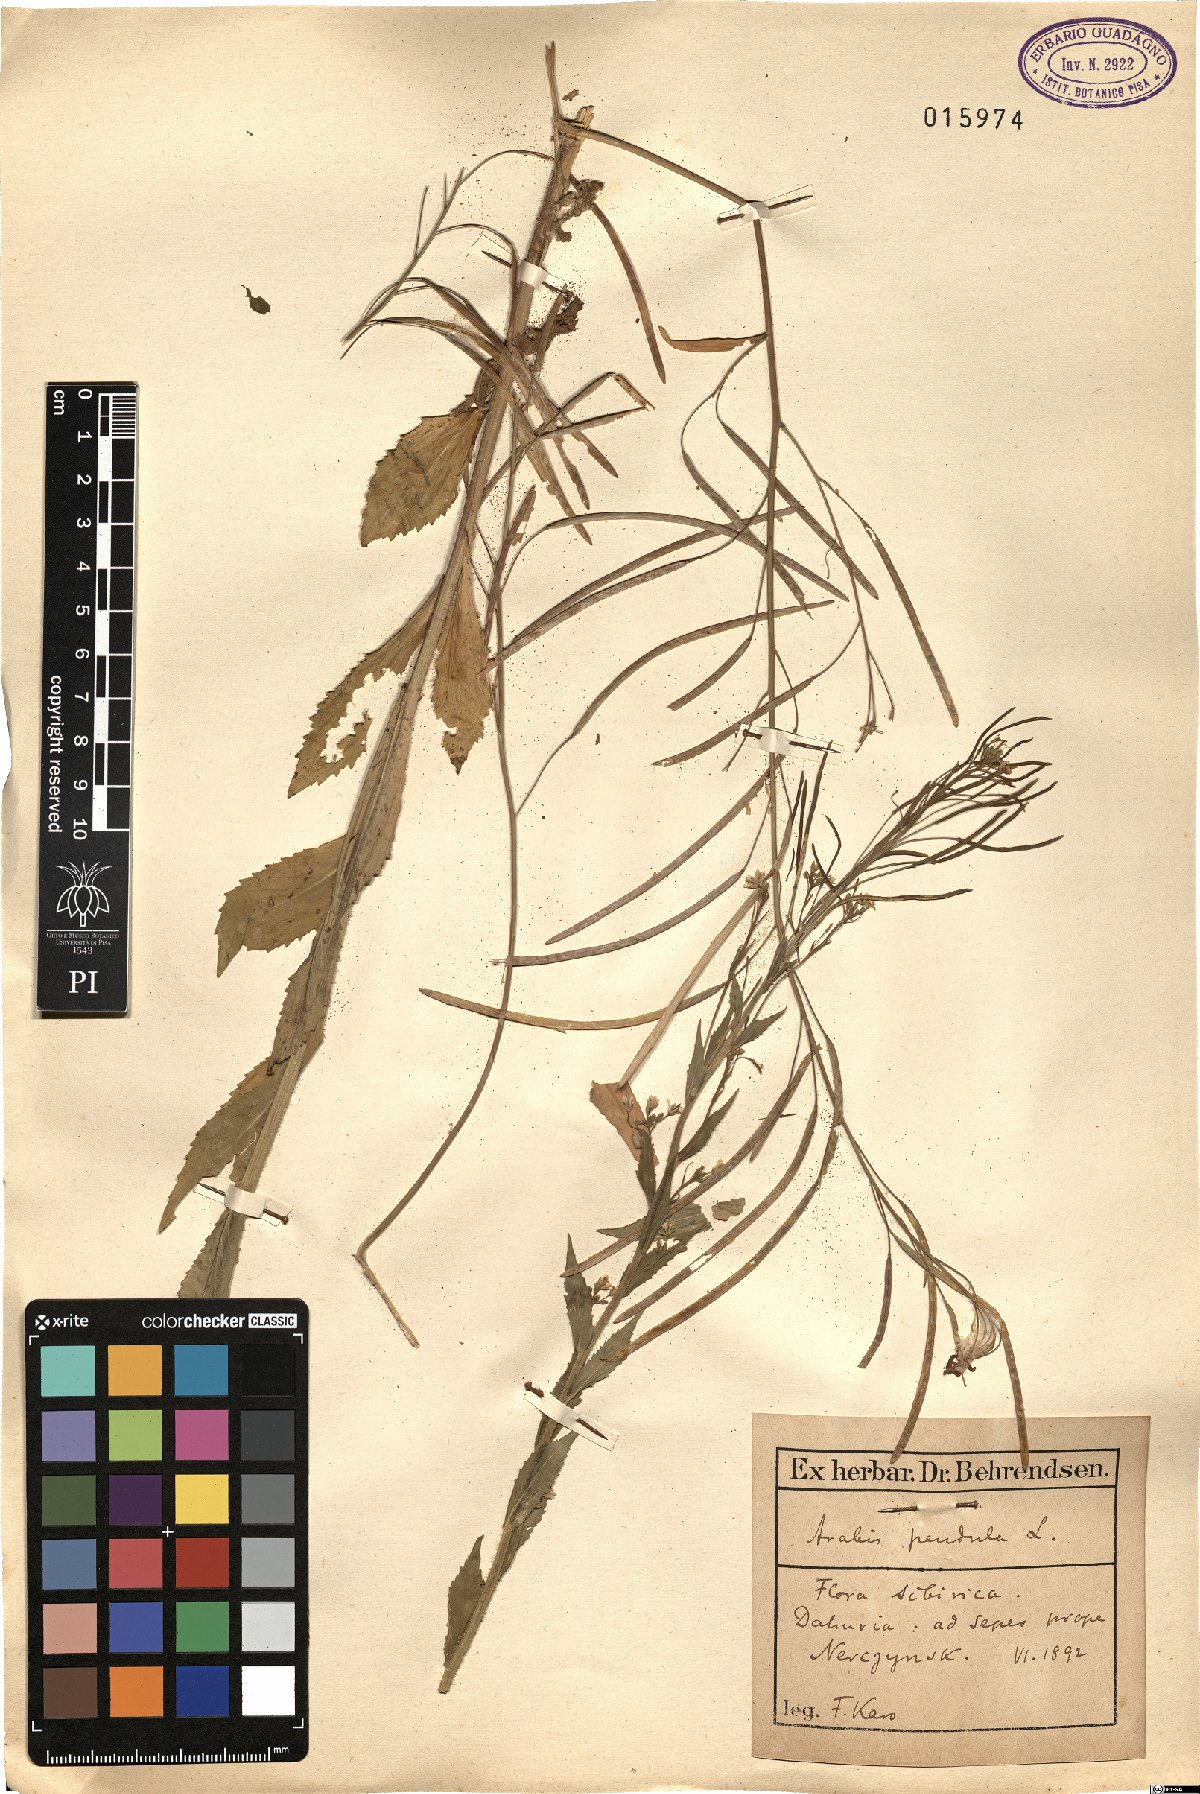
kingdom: Plantae
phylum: Tracheophyta
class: Magnoliopsida
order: Brassicales
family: Brassicaceae
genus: Catolobus
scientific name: Catolobus pendulus
